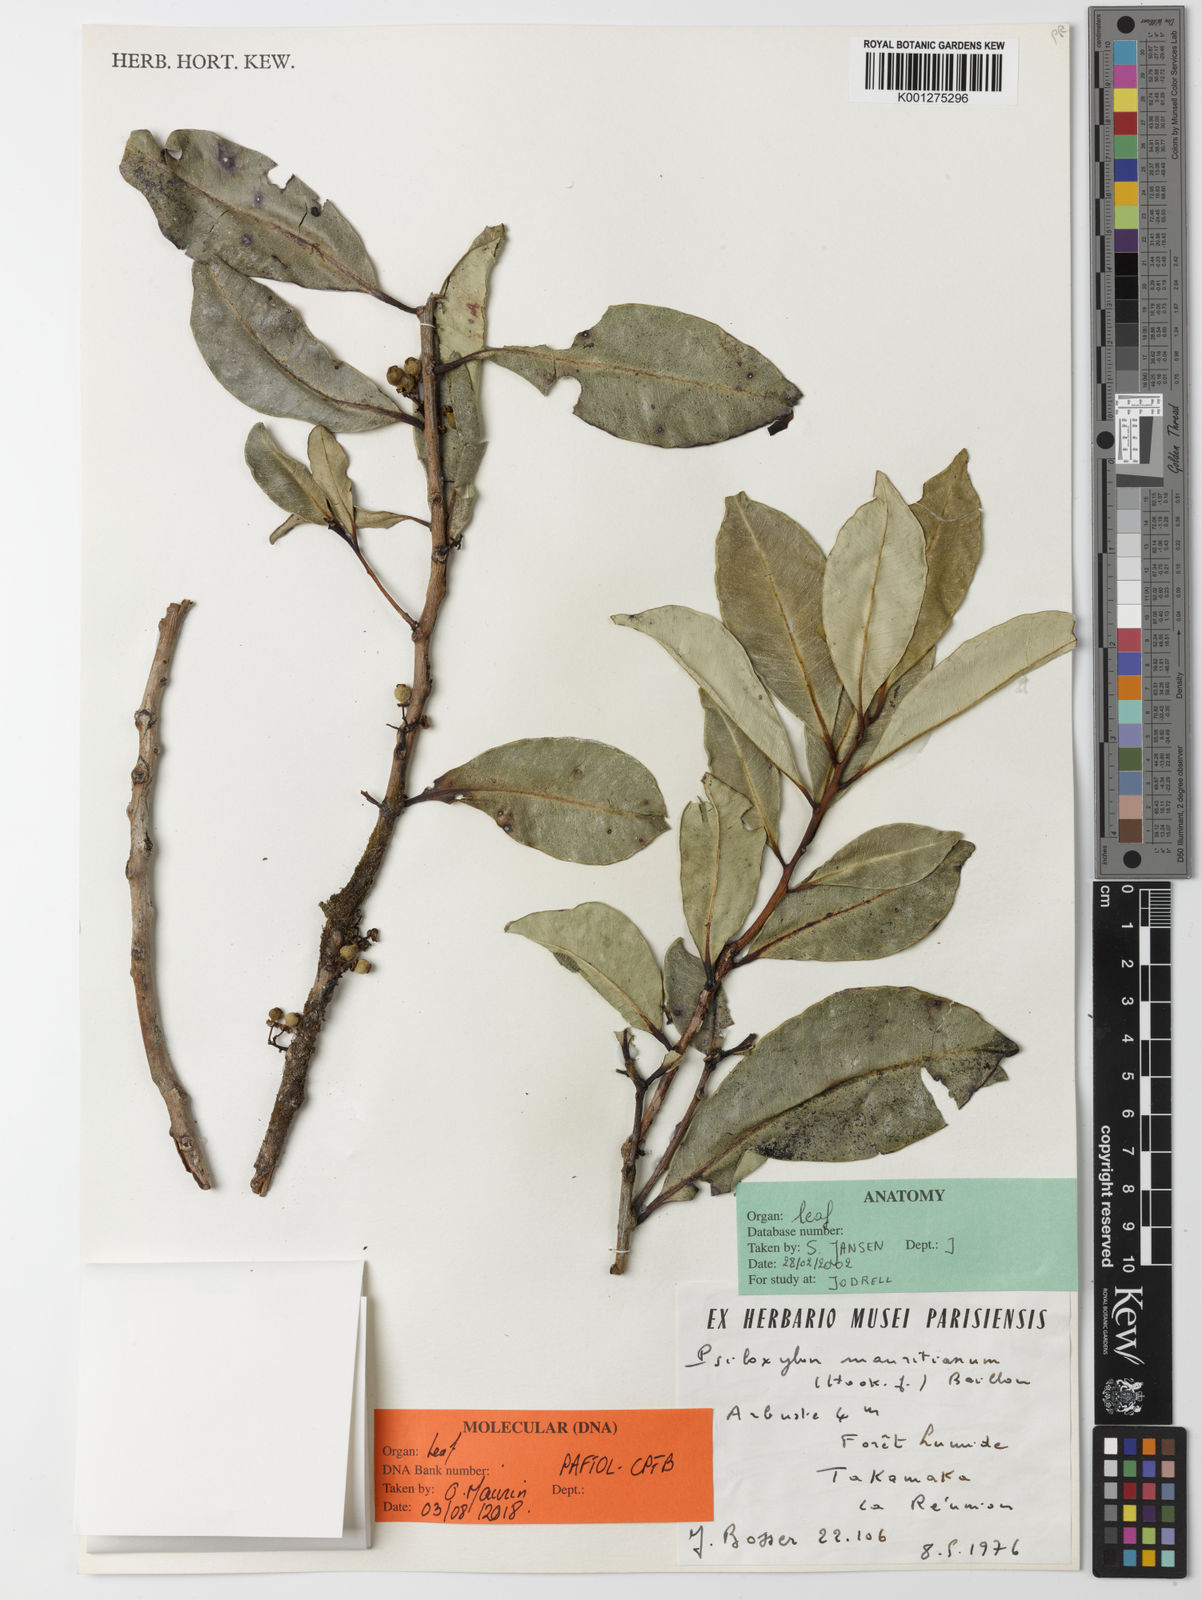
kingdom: Plantae
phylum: Tracheophyta
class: Magnoliopsida
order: Myrtales
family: Myrtaceae
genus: Psiloxylon
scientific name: Psiloxylon mauritianum
